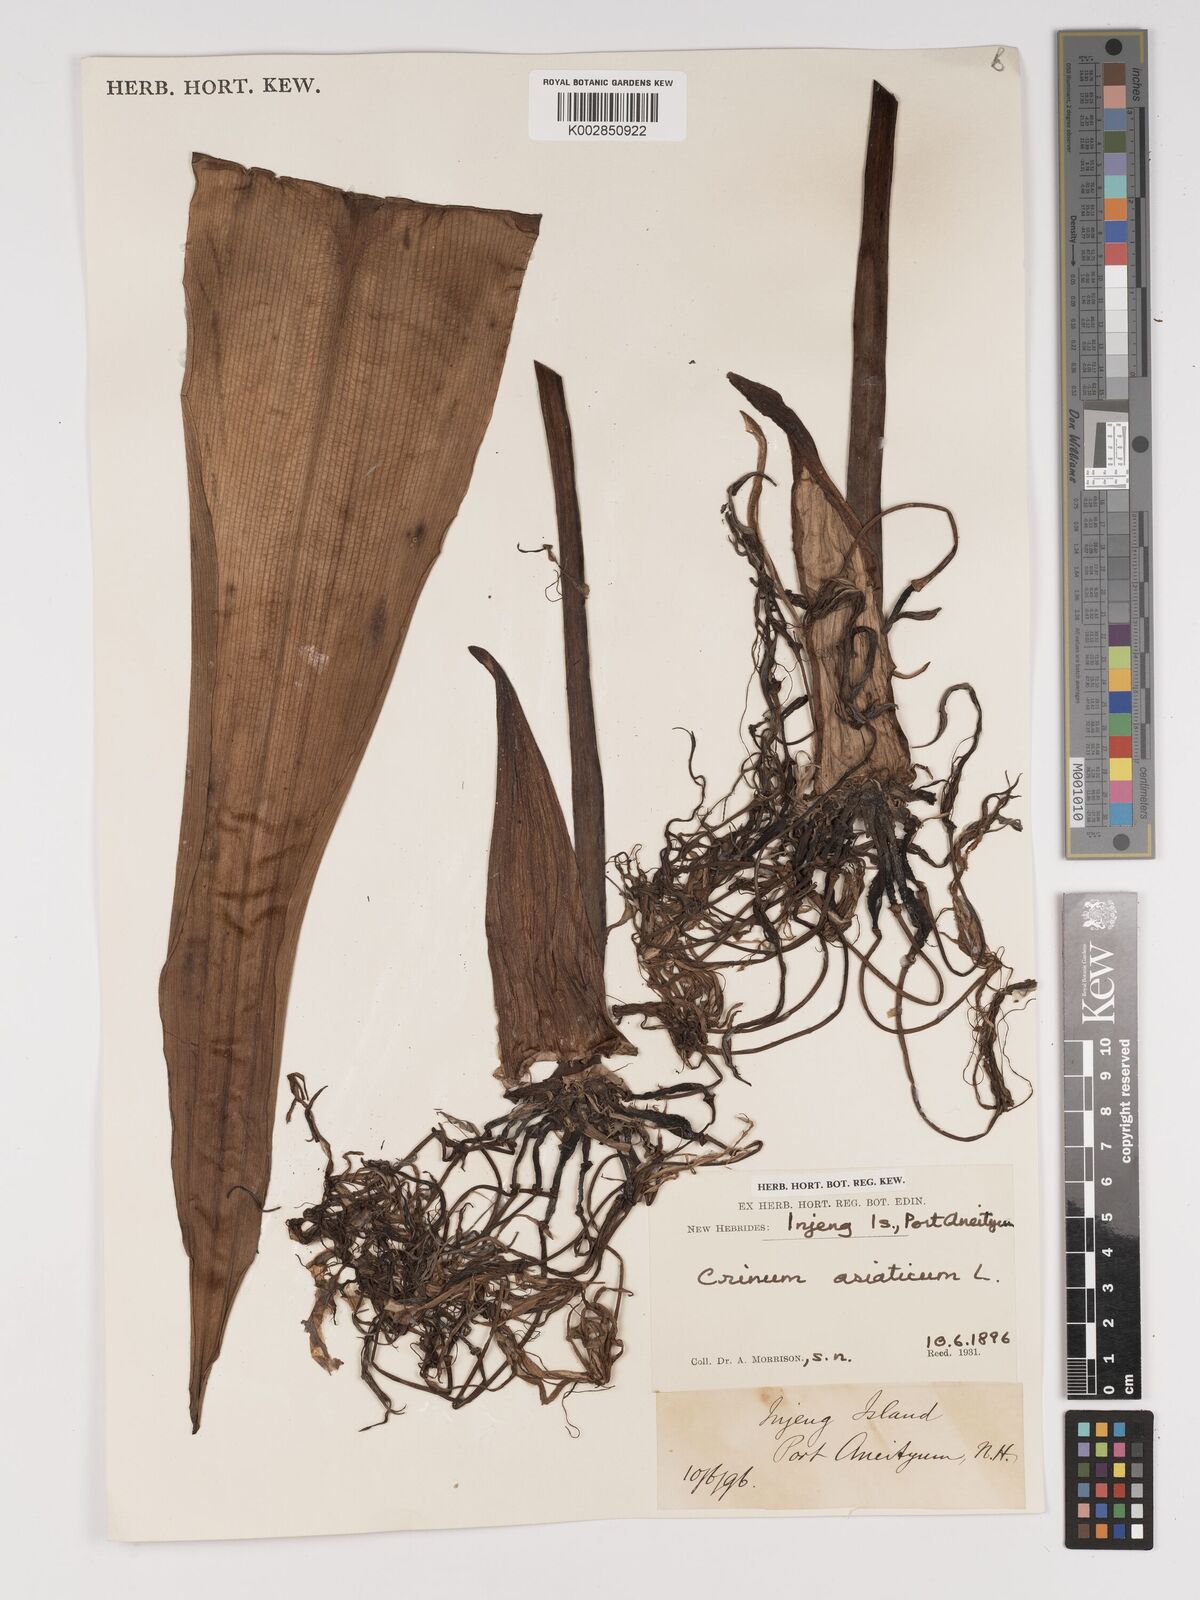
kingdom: Plantae
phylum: Tracheophyta
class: Liliopsida
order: Asparagales
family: Amaryllidaceae
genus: Crinum
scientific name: Crinum asiaticum
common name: Poisonbulb
